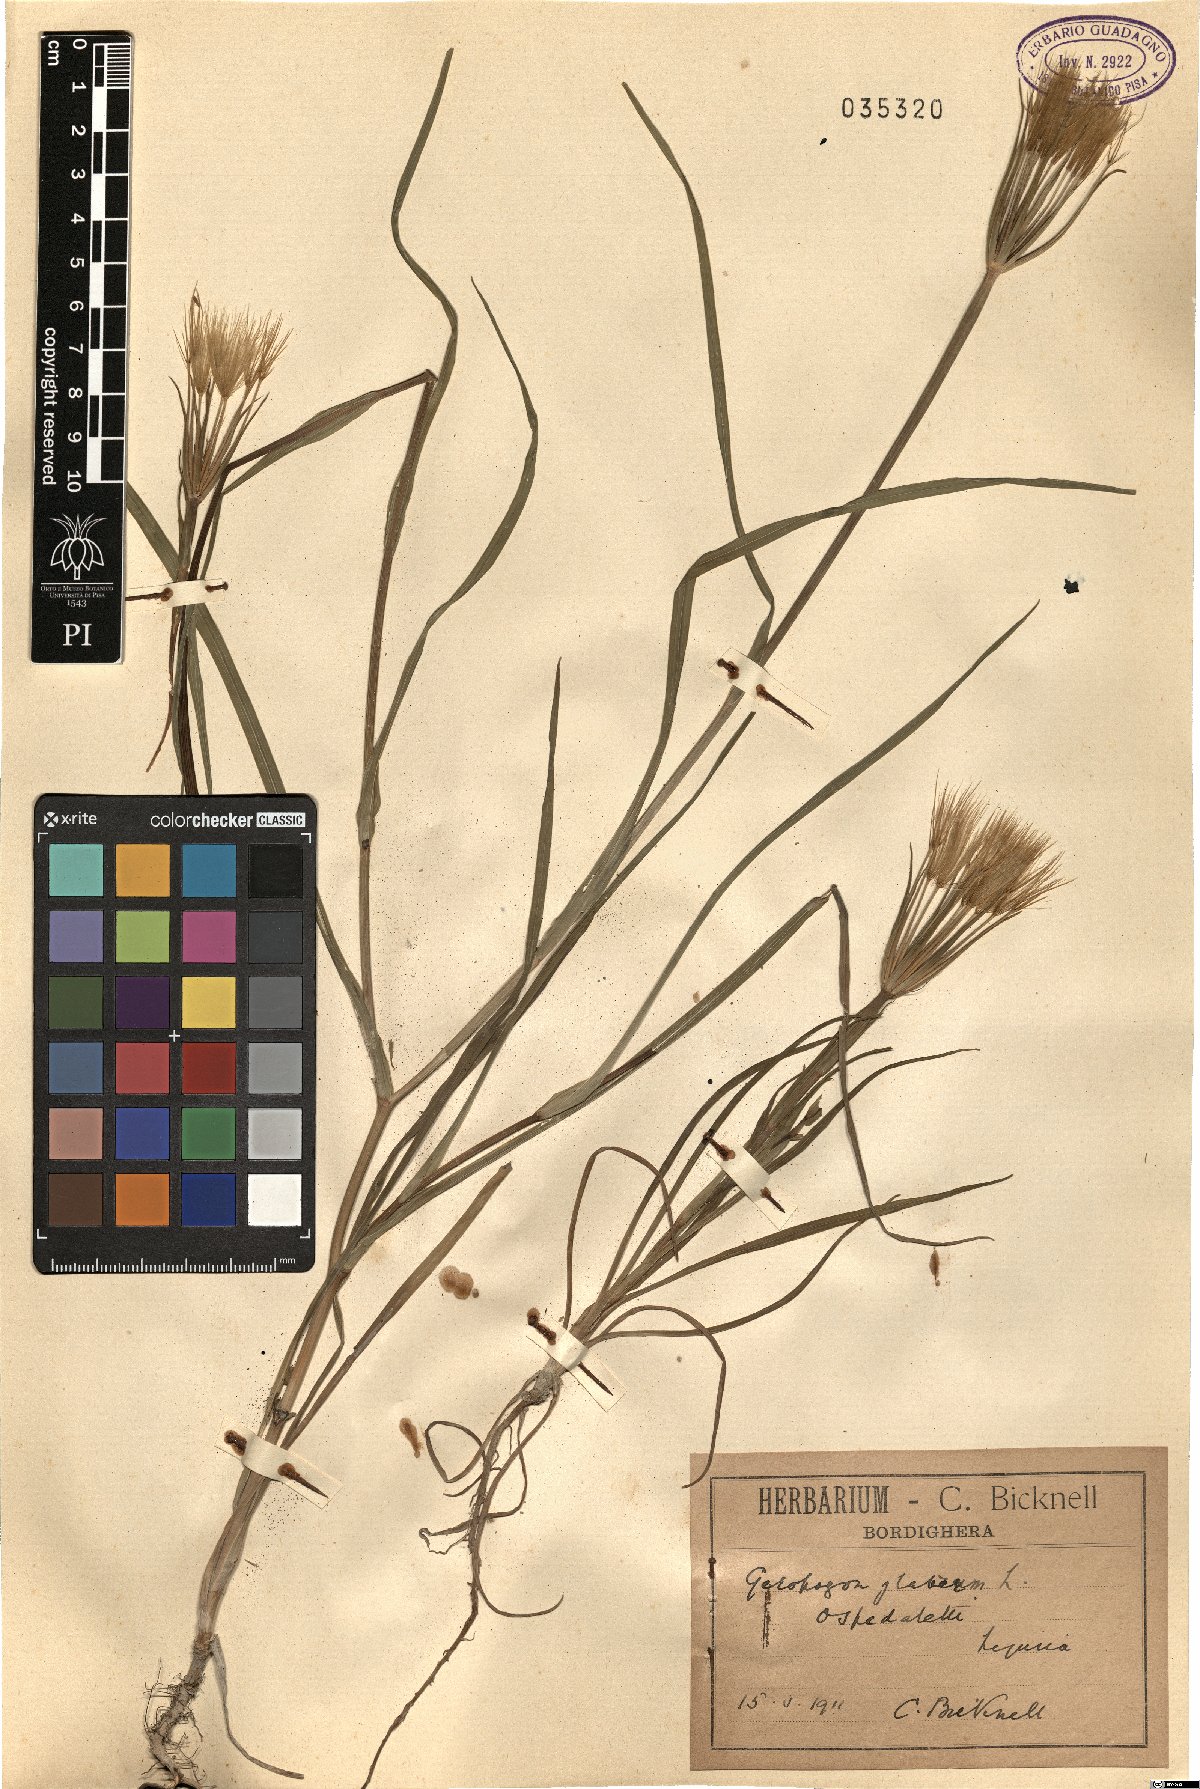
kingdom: Plantae
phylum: Tracheophyta
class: Magnoliopsida
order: Asterales
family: Asteraceae
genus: Geropogon
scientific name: Geropogon hybridus
